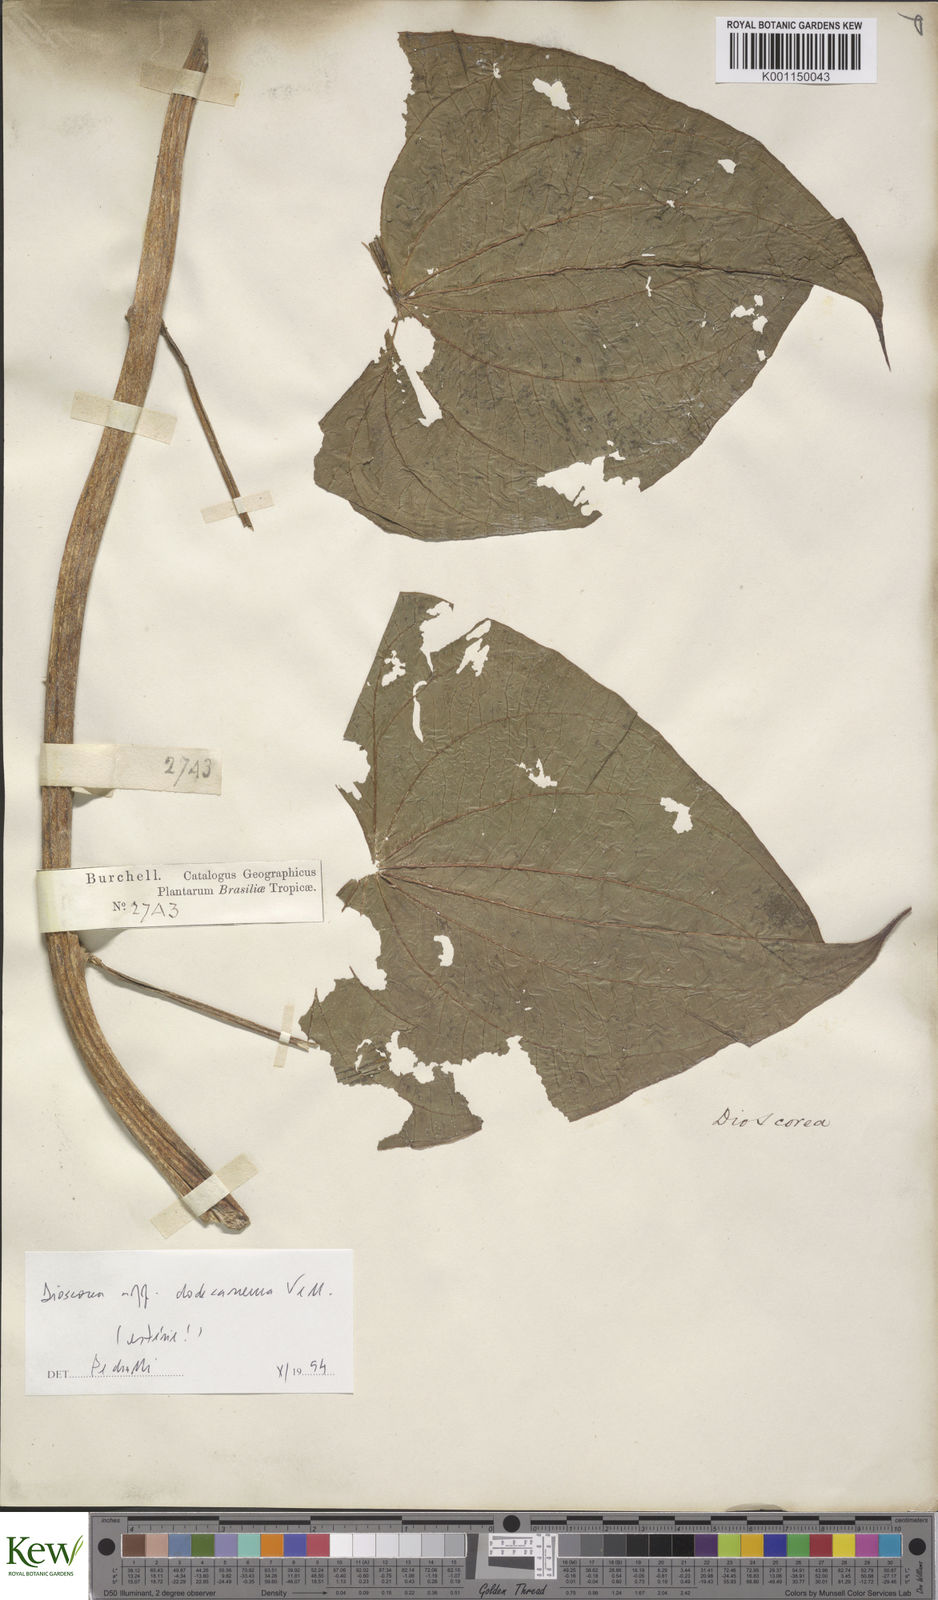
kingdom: Plantae
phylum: Tracheophyta
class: Liliopsida
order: Dioscoreales
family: Dioscoreaceae
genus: Dioscorea
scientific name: Dioscorea dodecaneura
